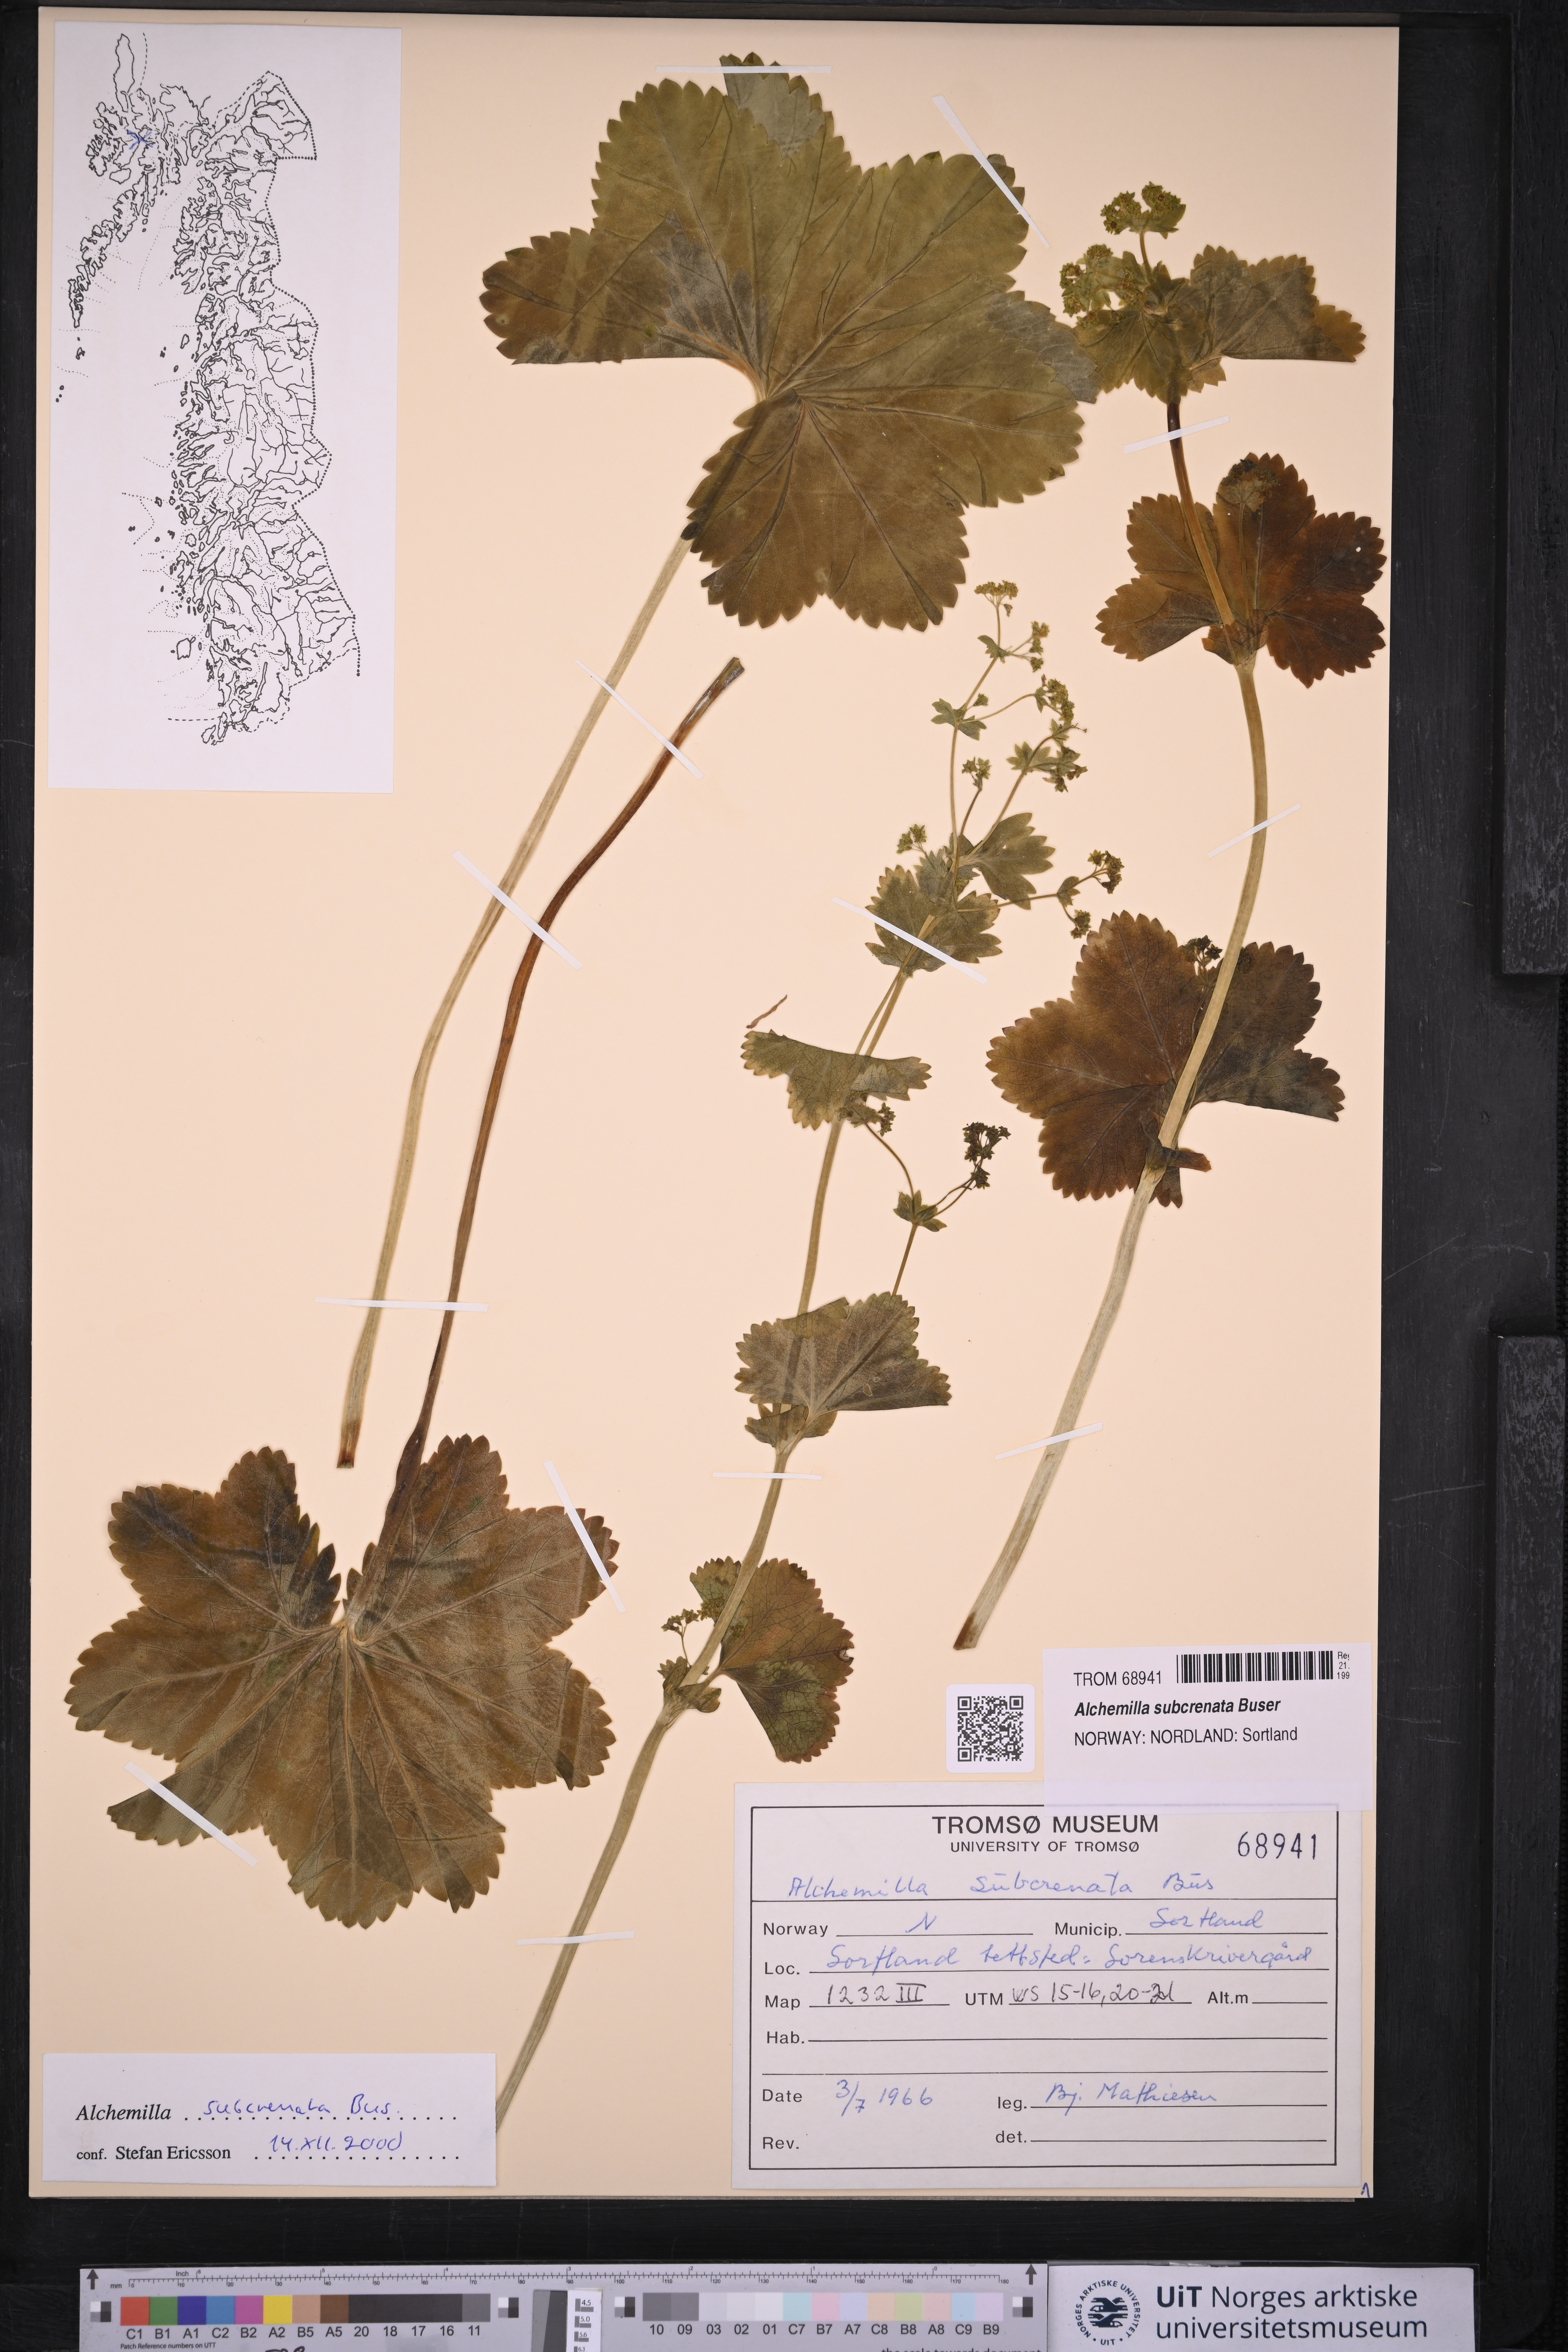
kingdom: Plantae
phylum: Tracheophyta
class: Magnoliopsida
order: Rosales
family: Rosaceae
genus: Alchemilla
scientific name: Alchemilla subcrenata
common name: Broadtooth lady's mantle
